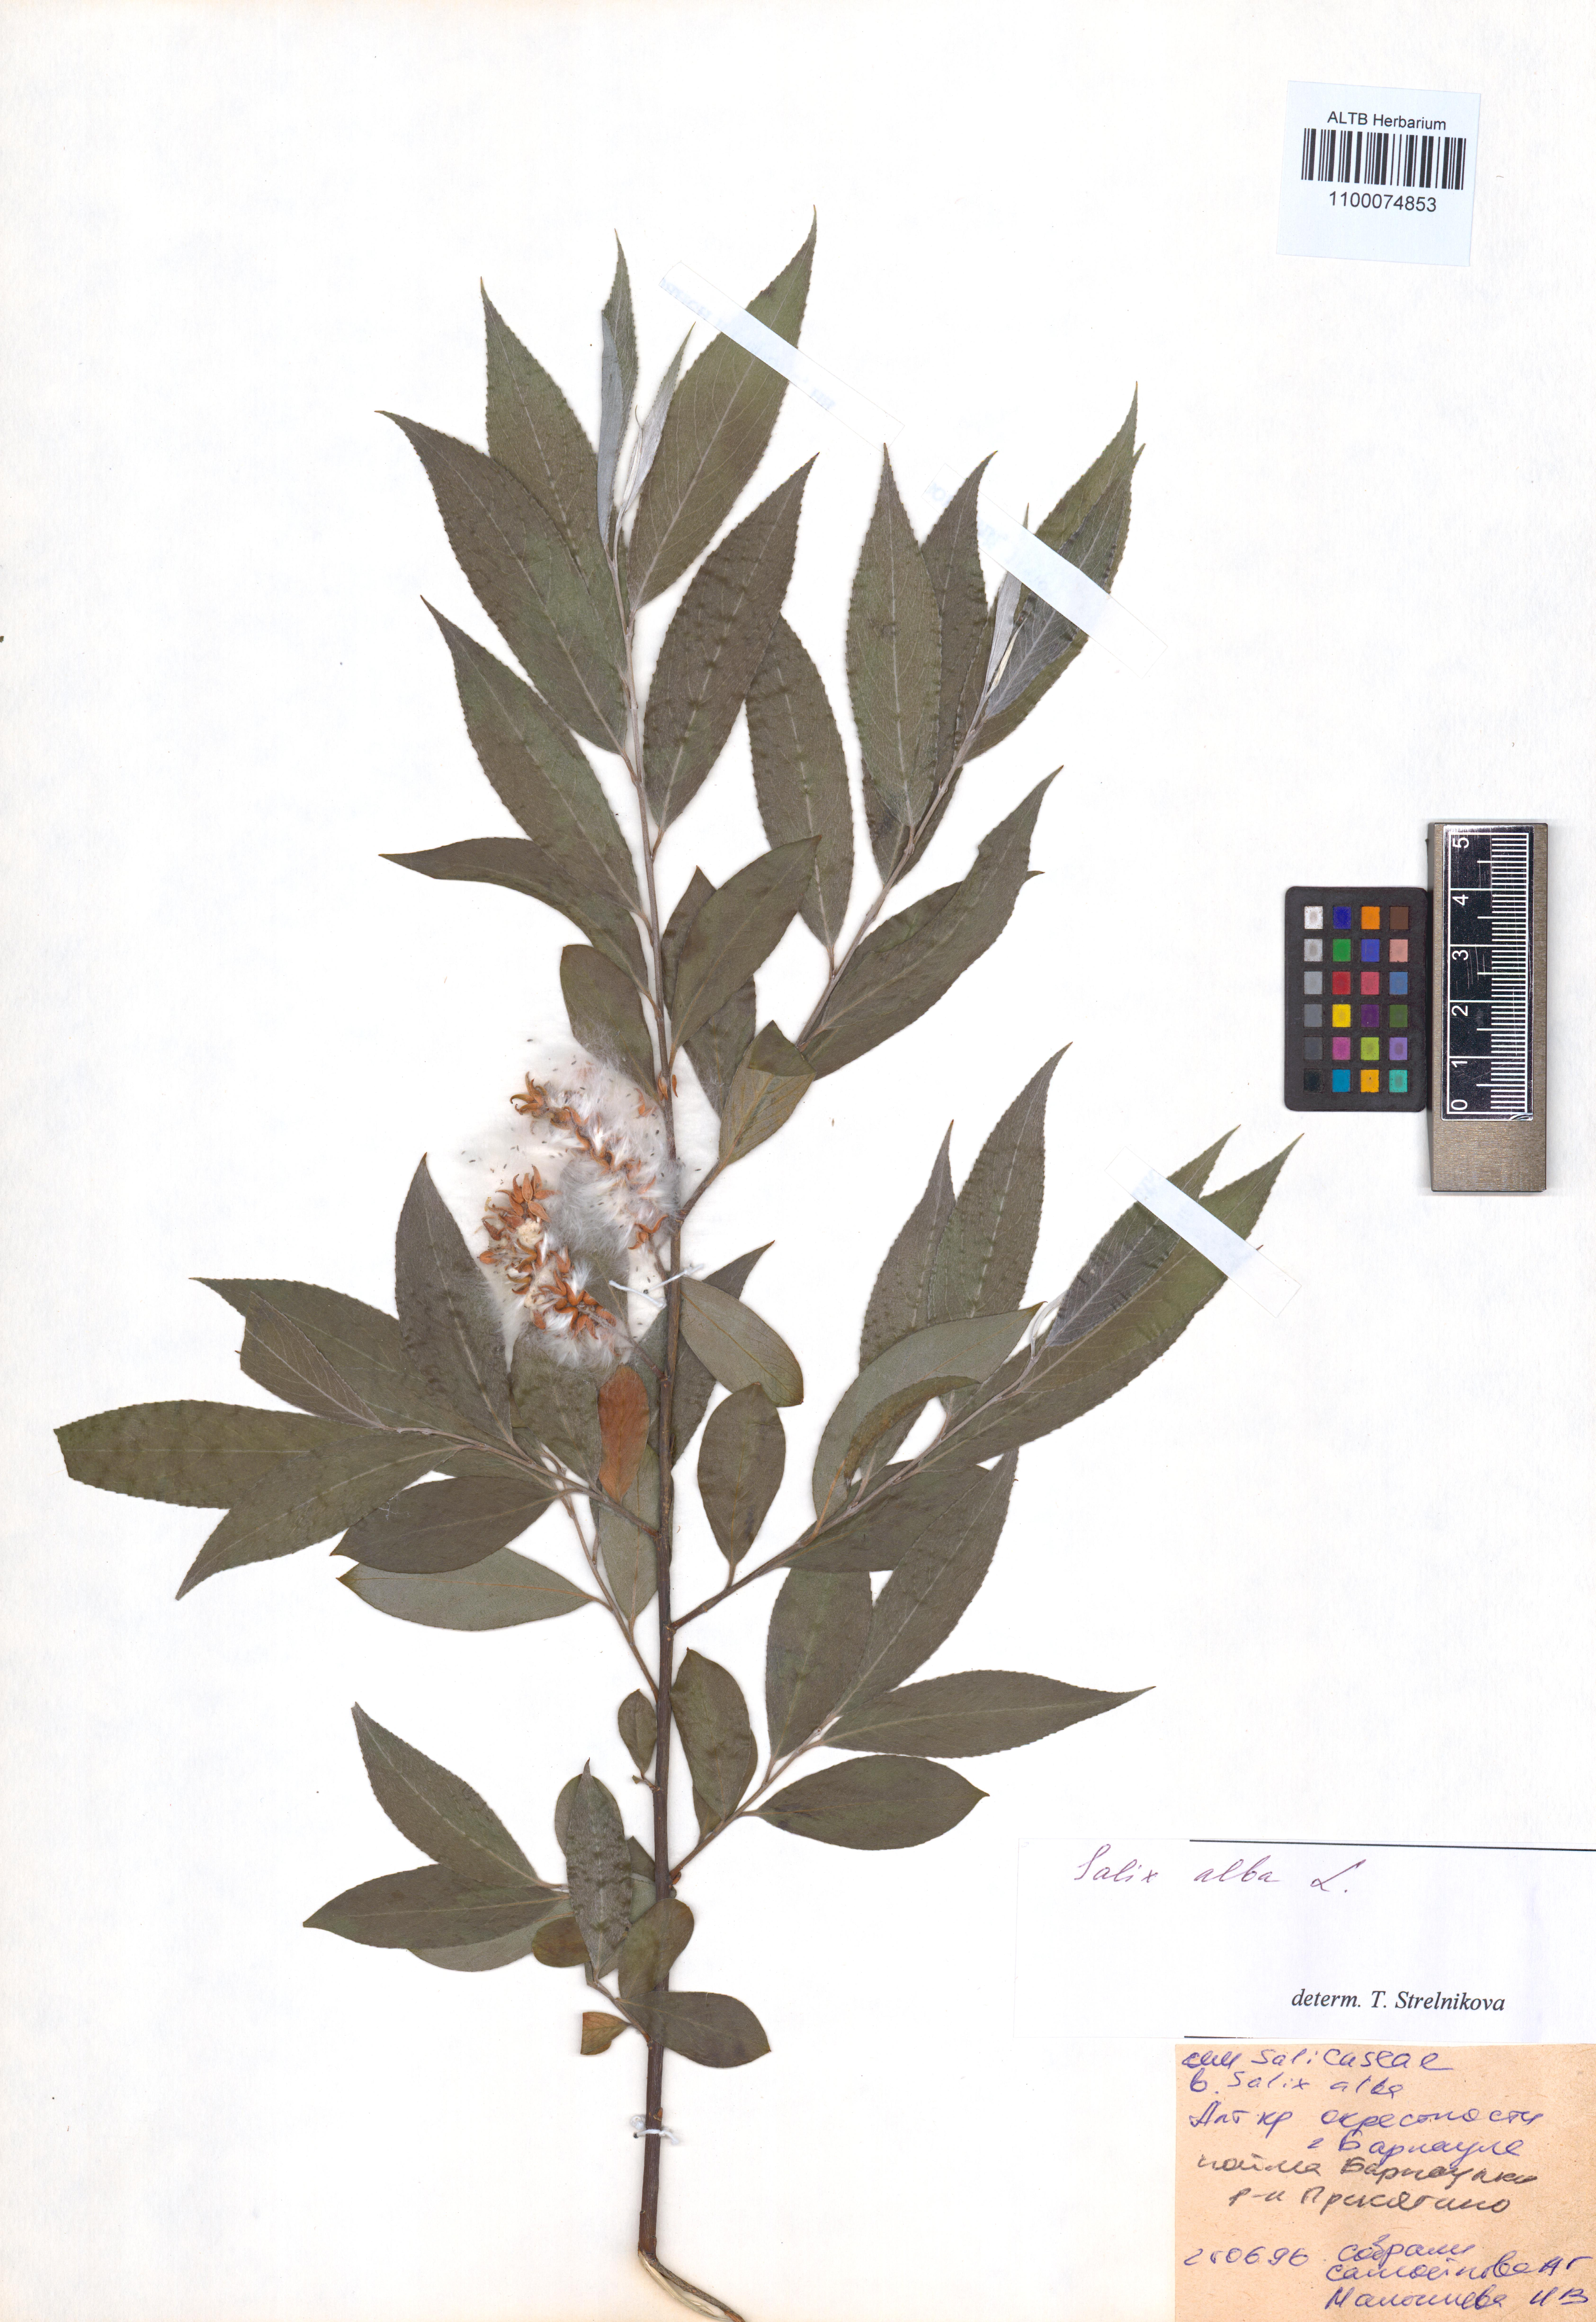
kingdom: Plantae
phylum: Tracheophyta
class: Magnoliopsida
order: Malpighiales
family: Salicaceae
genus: Salix
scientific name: Salix alba
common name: White willow
